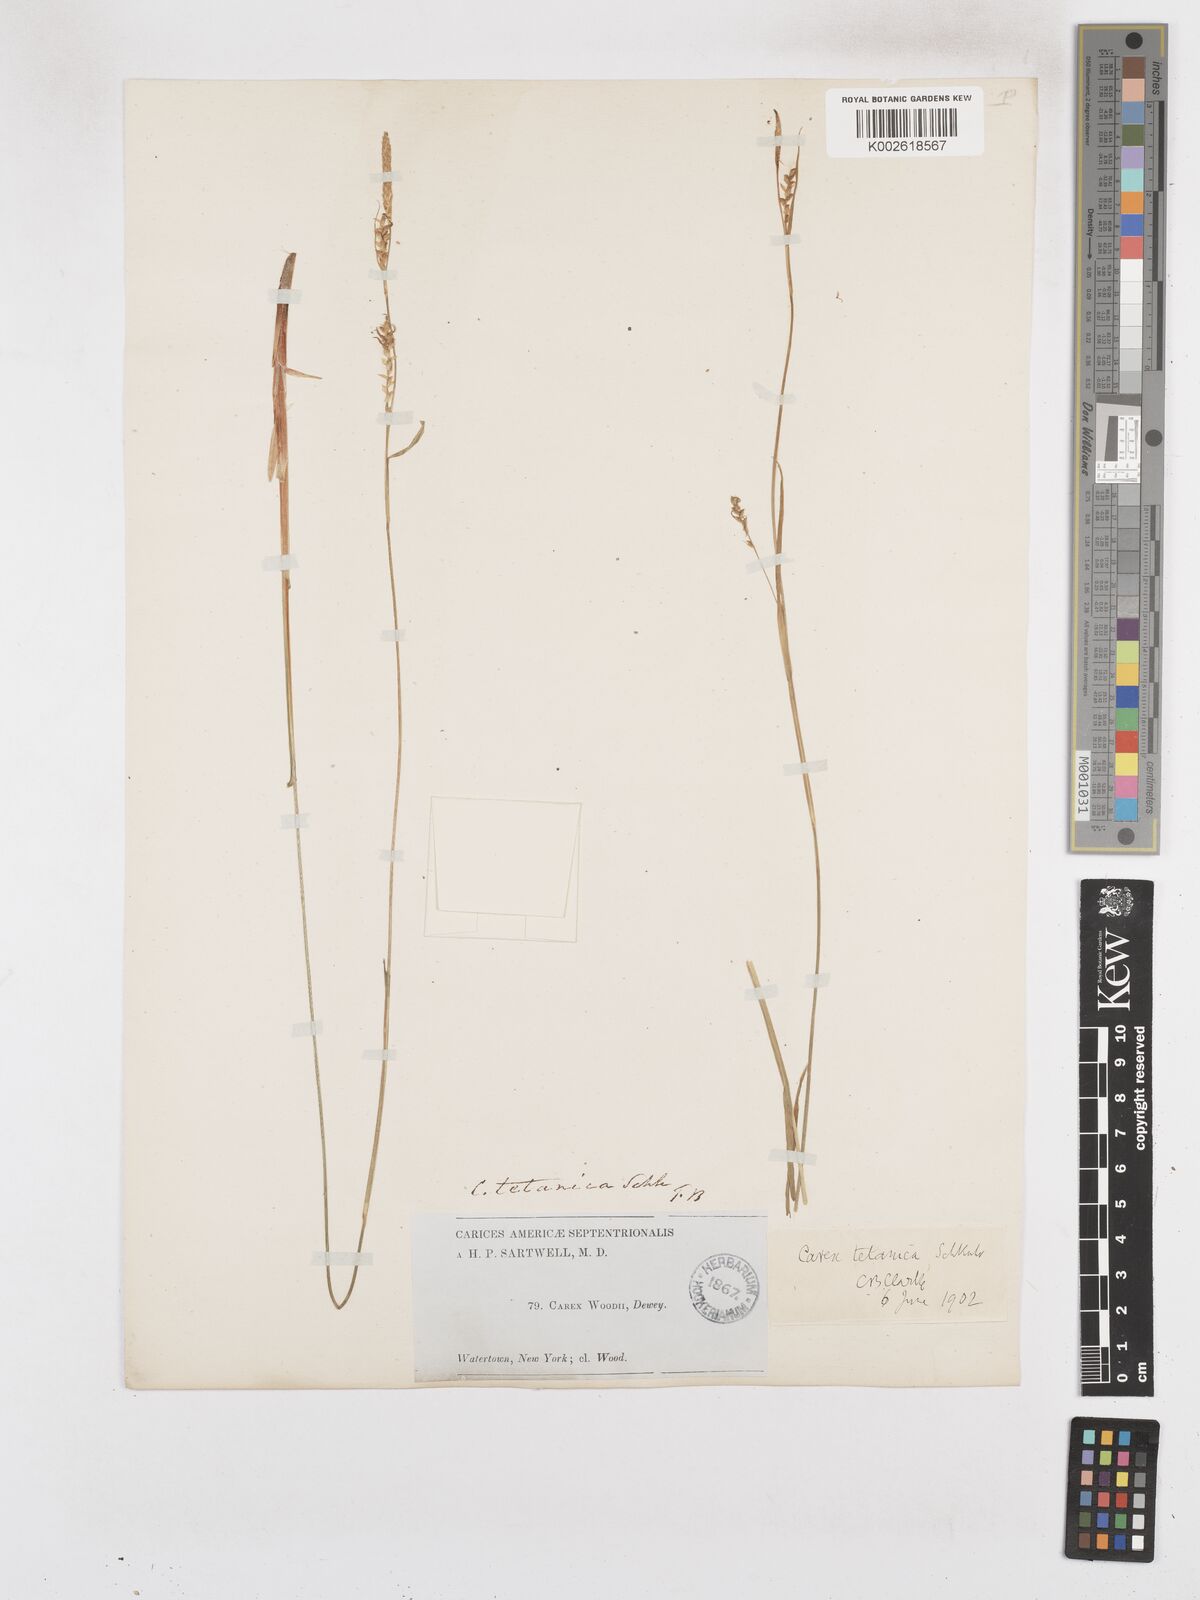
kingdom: Plantae
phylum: Tracheophyta
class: Liliopsida
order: Poales
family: Cyperaceae
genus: Carex
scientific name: Carex woodii
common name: Wood's sedge
